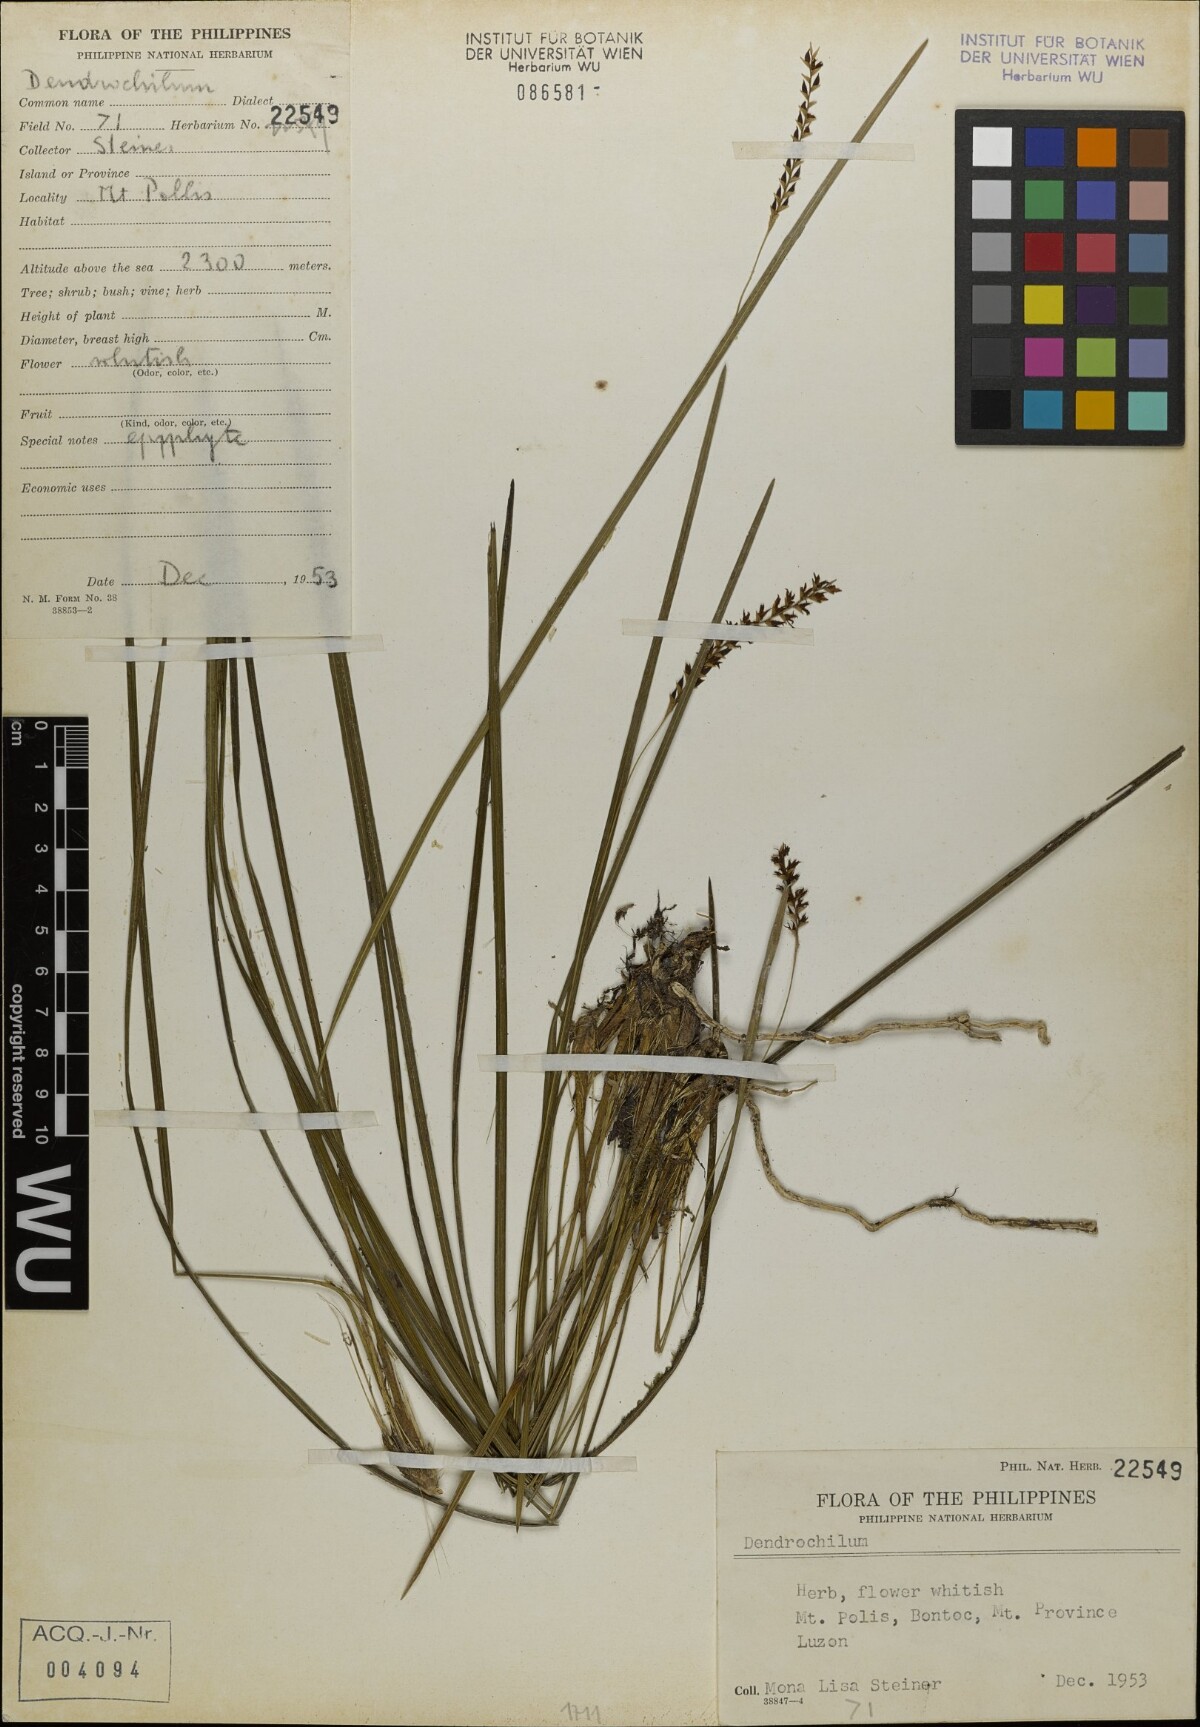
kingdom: Plantae
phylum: Tracheophyta
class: Liliopsida
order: Asparagales
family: Orchidaceae
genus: Coelogyne
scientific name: Coelogyne
